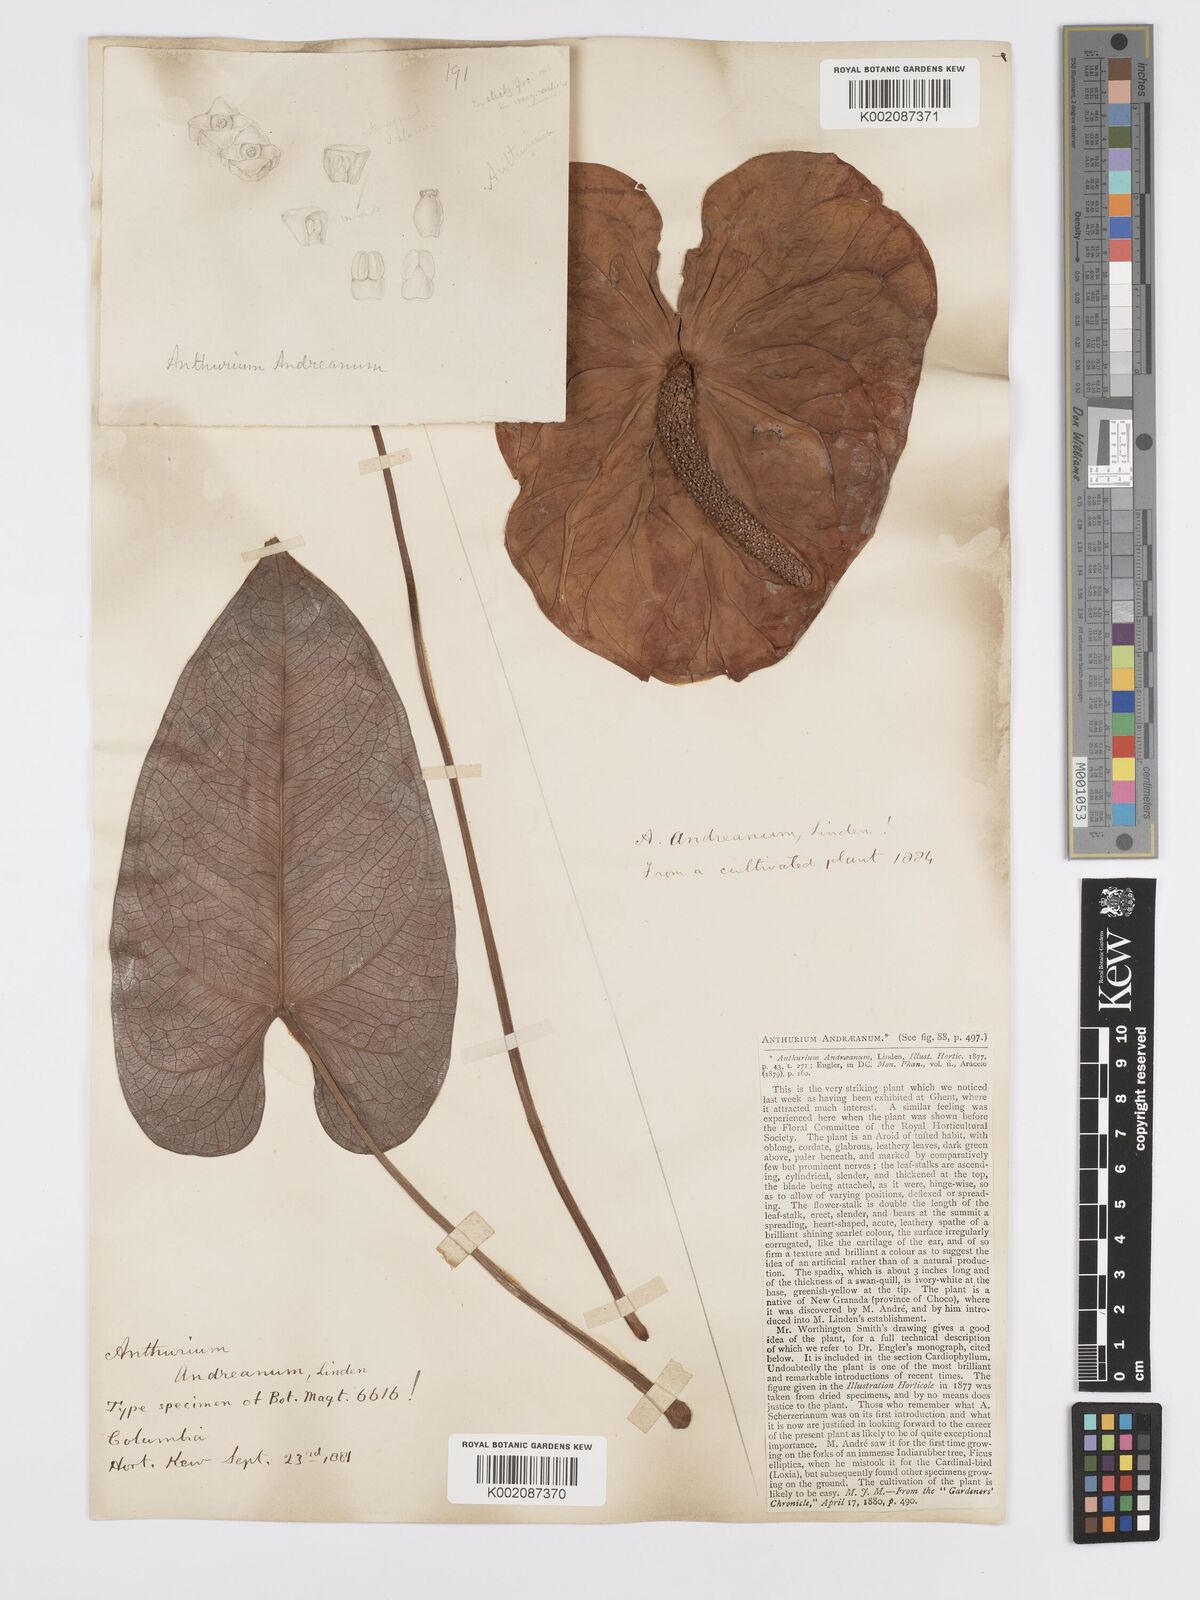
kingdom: Plantae
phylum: Tracheophyta
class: Liliopsida
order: Alismatales
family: Araceae
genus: Anthurium
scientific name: Anthurium andraeanum
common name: Flamingo-flower
